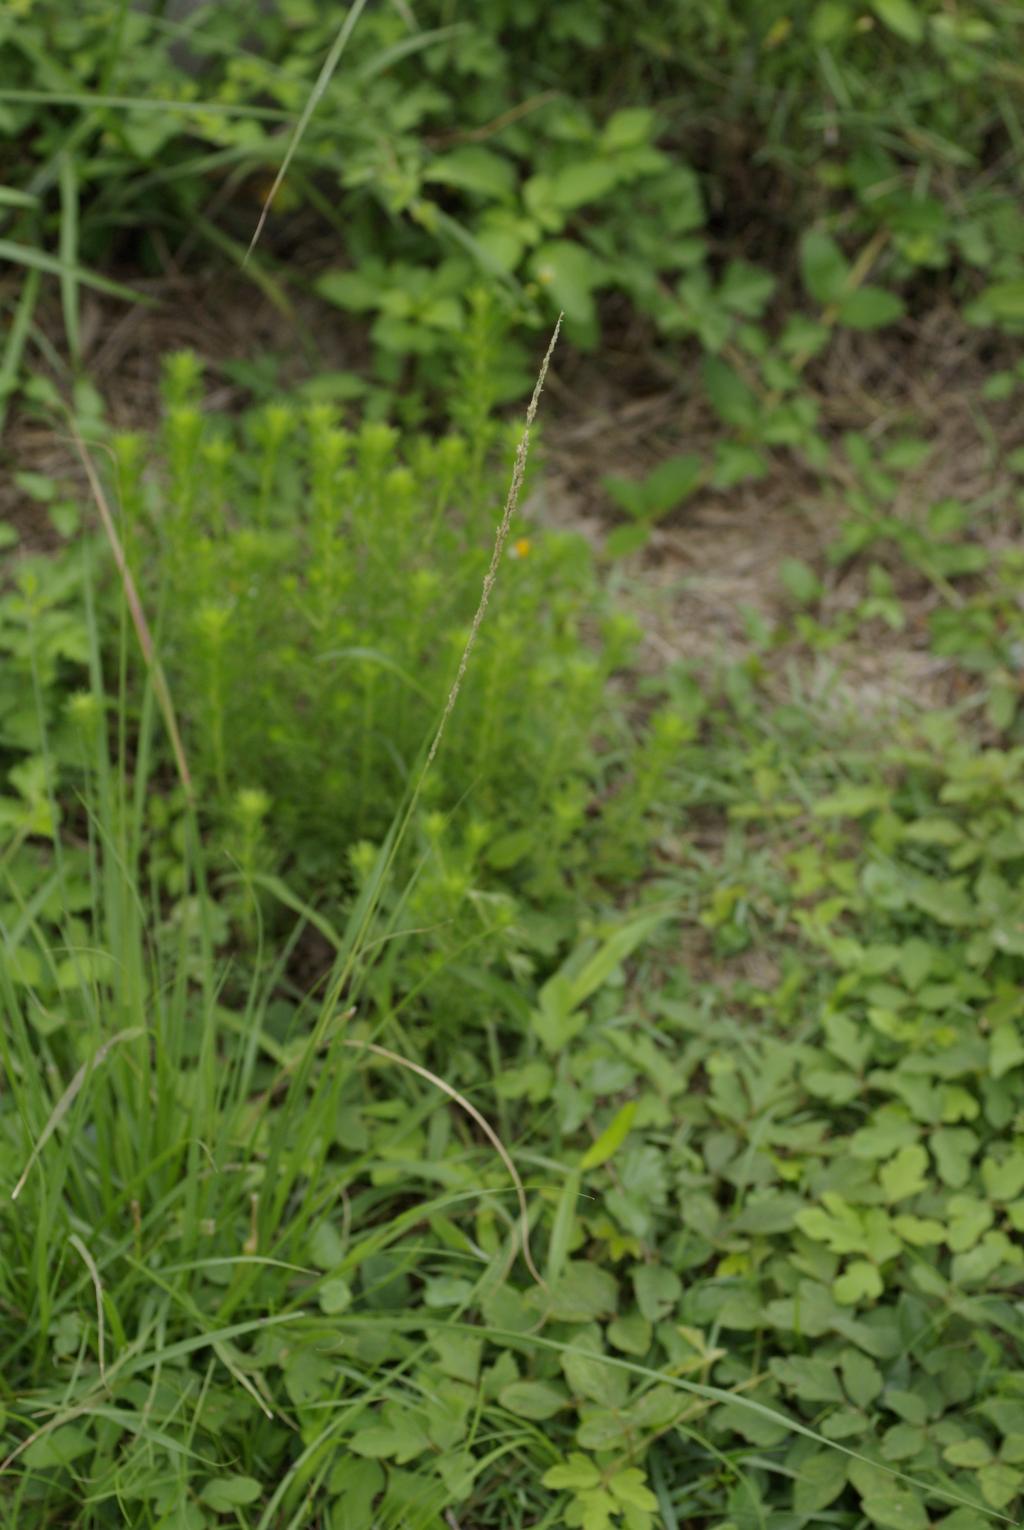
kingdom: Plantae
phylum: Tracheophyta
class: Liliopsida
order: Poales
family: Poaceae
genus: Sporobolus
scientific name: Sporobolus fertilis
